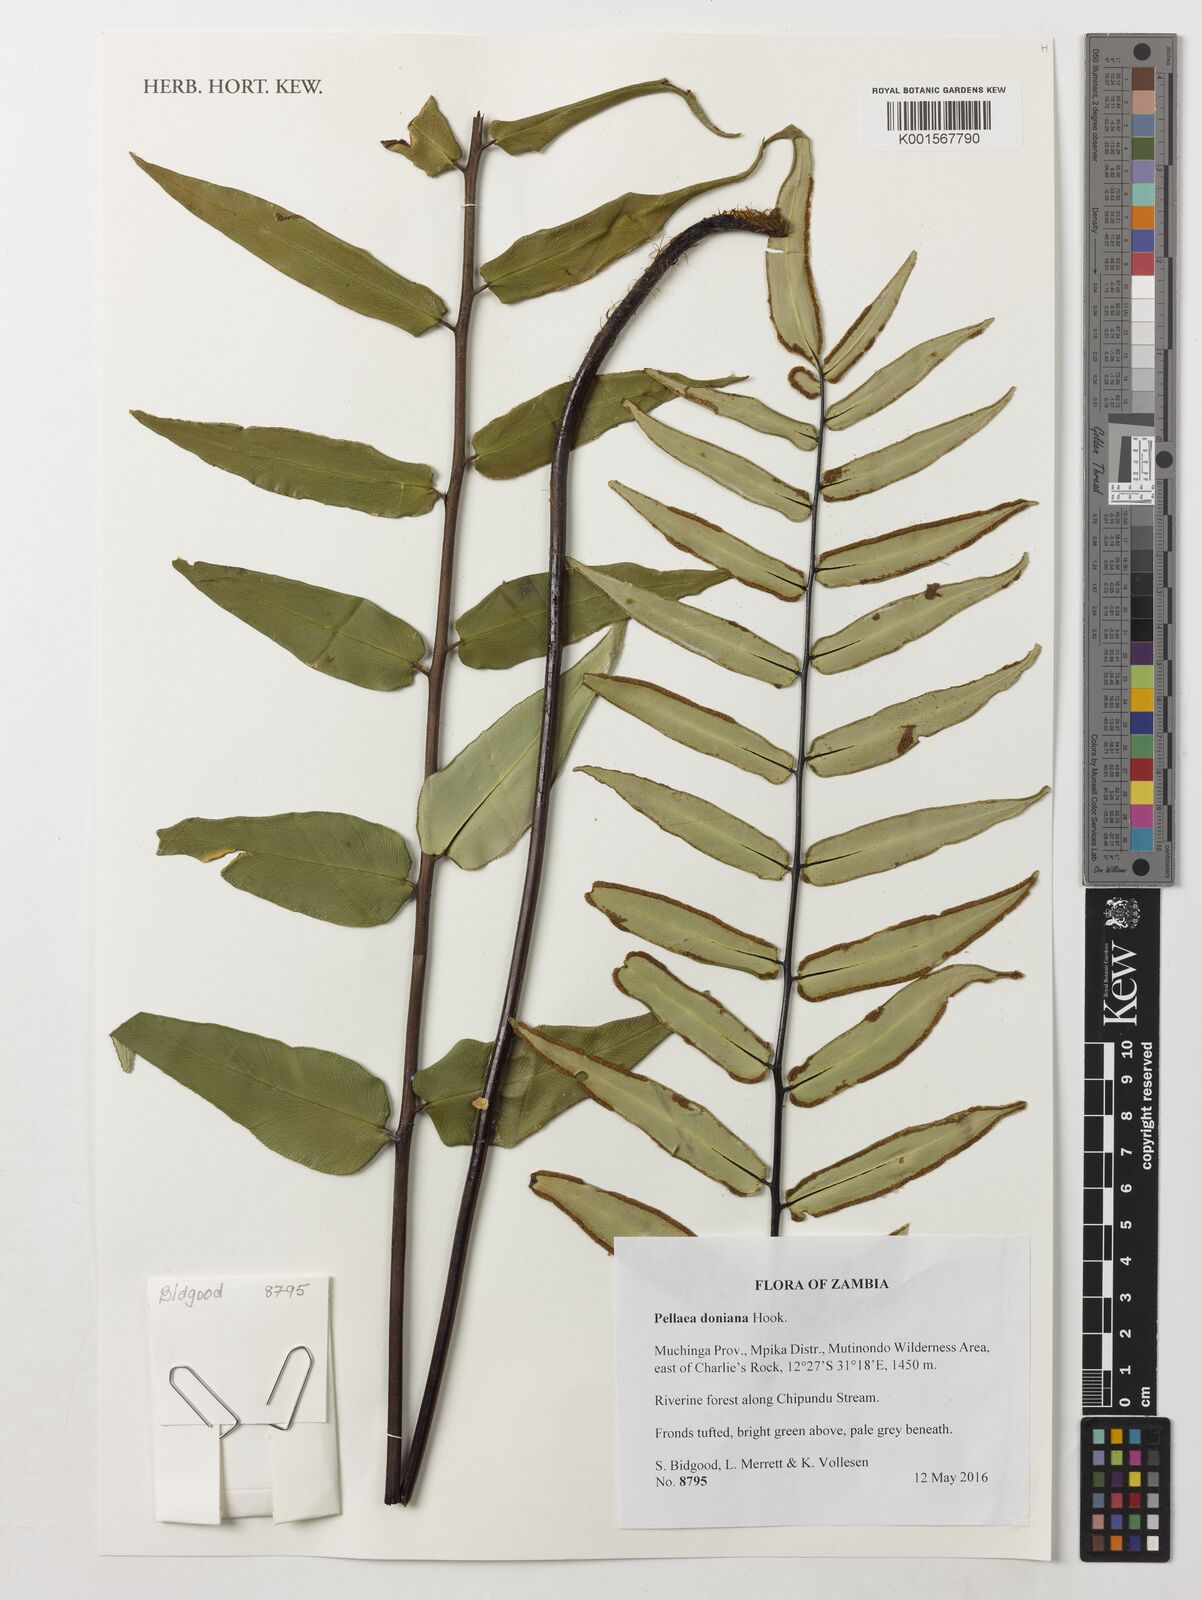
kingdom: Plantae
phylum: Tracheophyta
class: Polypodiopsida
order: Polypodiales
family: Pteridaceae
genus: Pellaea
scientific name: Pellaea doniana
